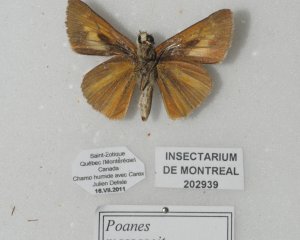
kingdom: Animalia
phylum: Arthropoda
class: Insecta
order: Lepidoptera
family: Hesperiidae
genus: Euphyes
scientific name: Euphyes dion
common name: Dion Skipper
